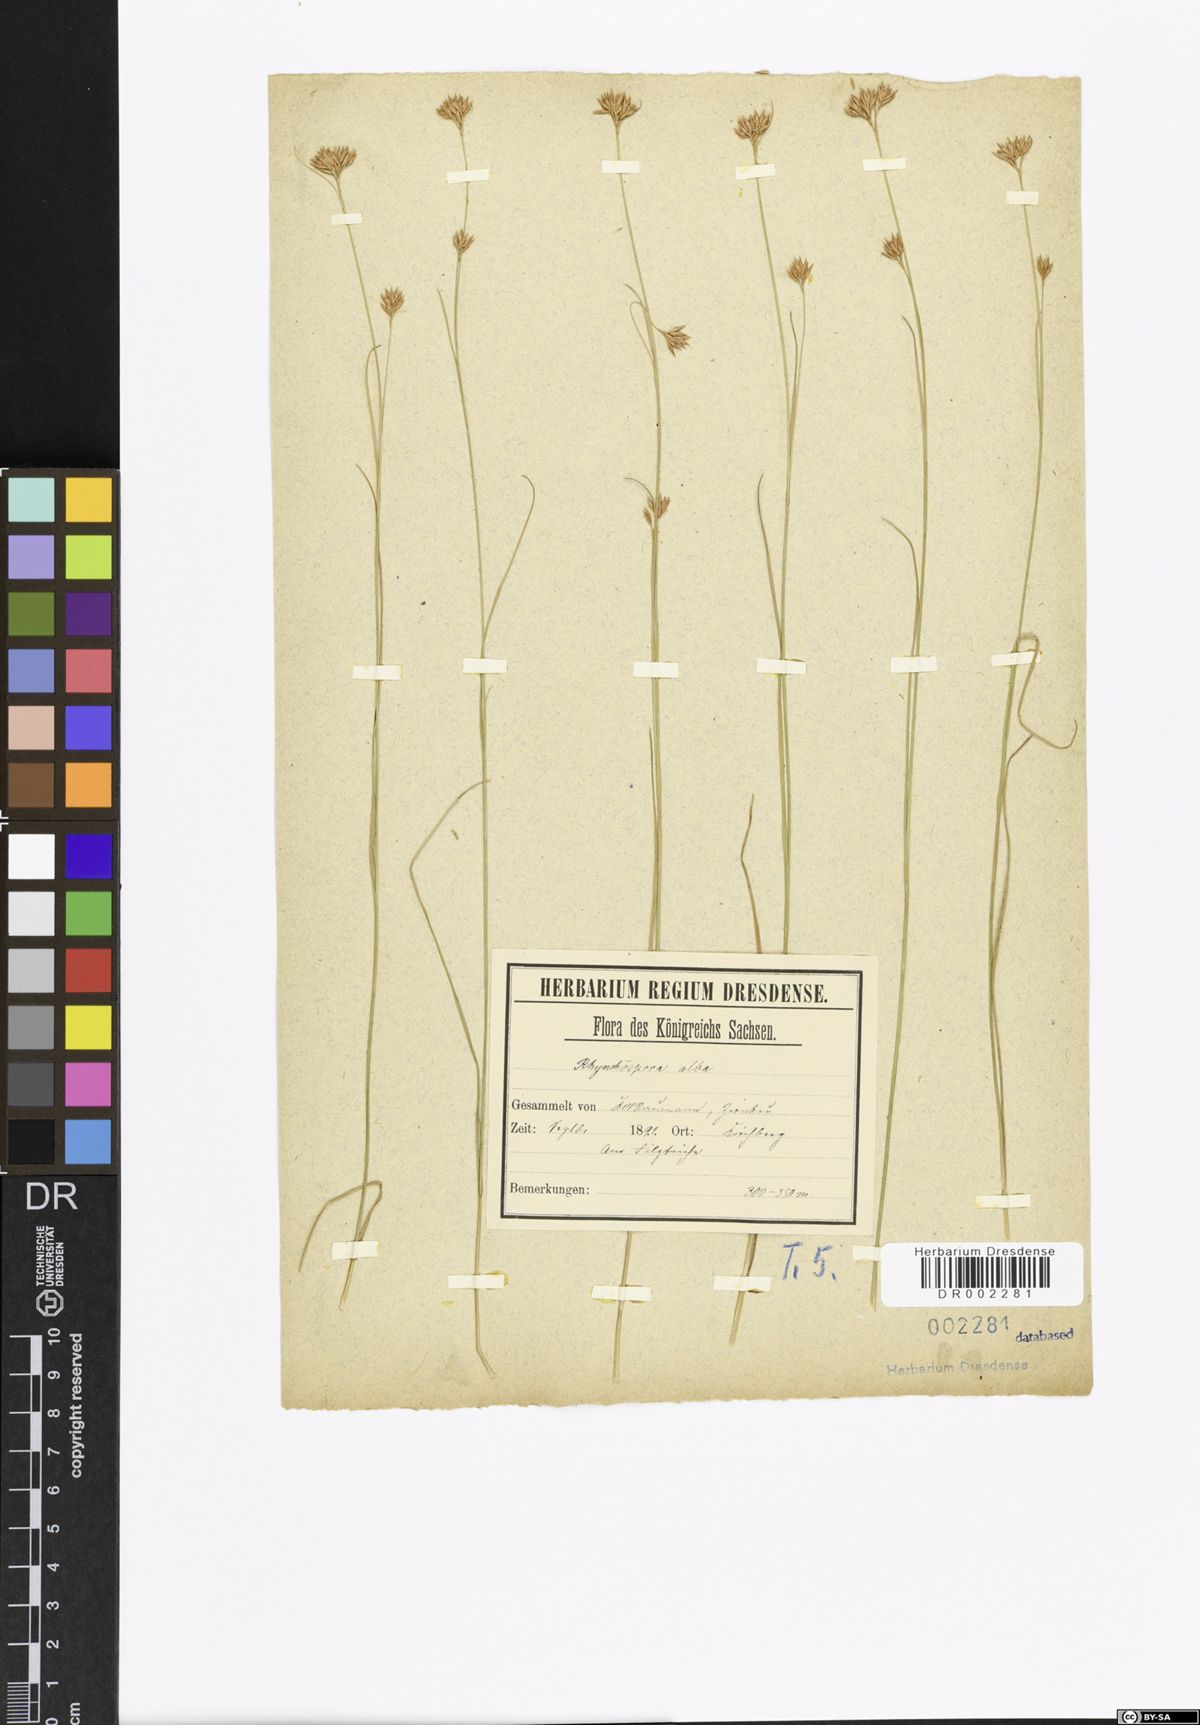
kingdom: Plantae
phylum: Tracheophyta
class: Liliopsida
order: Poales
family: Cyperaceae
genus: Rhynchospora
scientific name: Rhynchospora alba
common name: White beak-sedge
